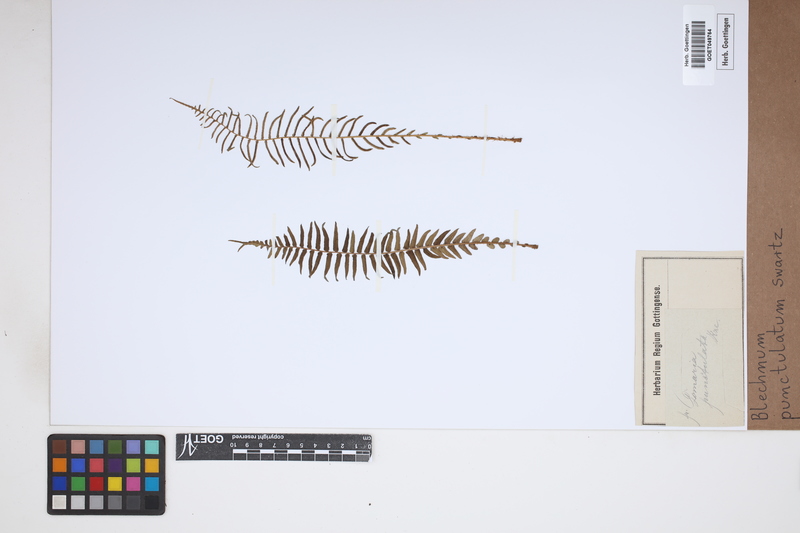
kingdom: Plantae
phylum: Tracheophyta
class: Polypodiopsida
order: Polypodiales
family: Blechnaceae
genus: Blechnum
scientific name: Blechnum punctulatum
